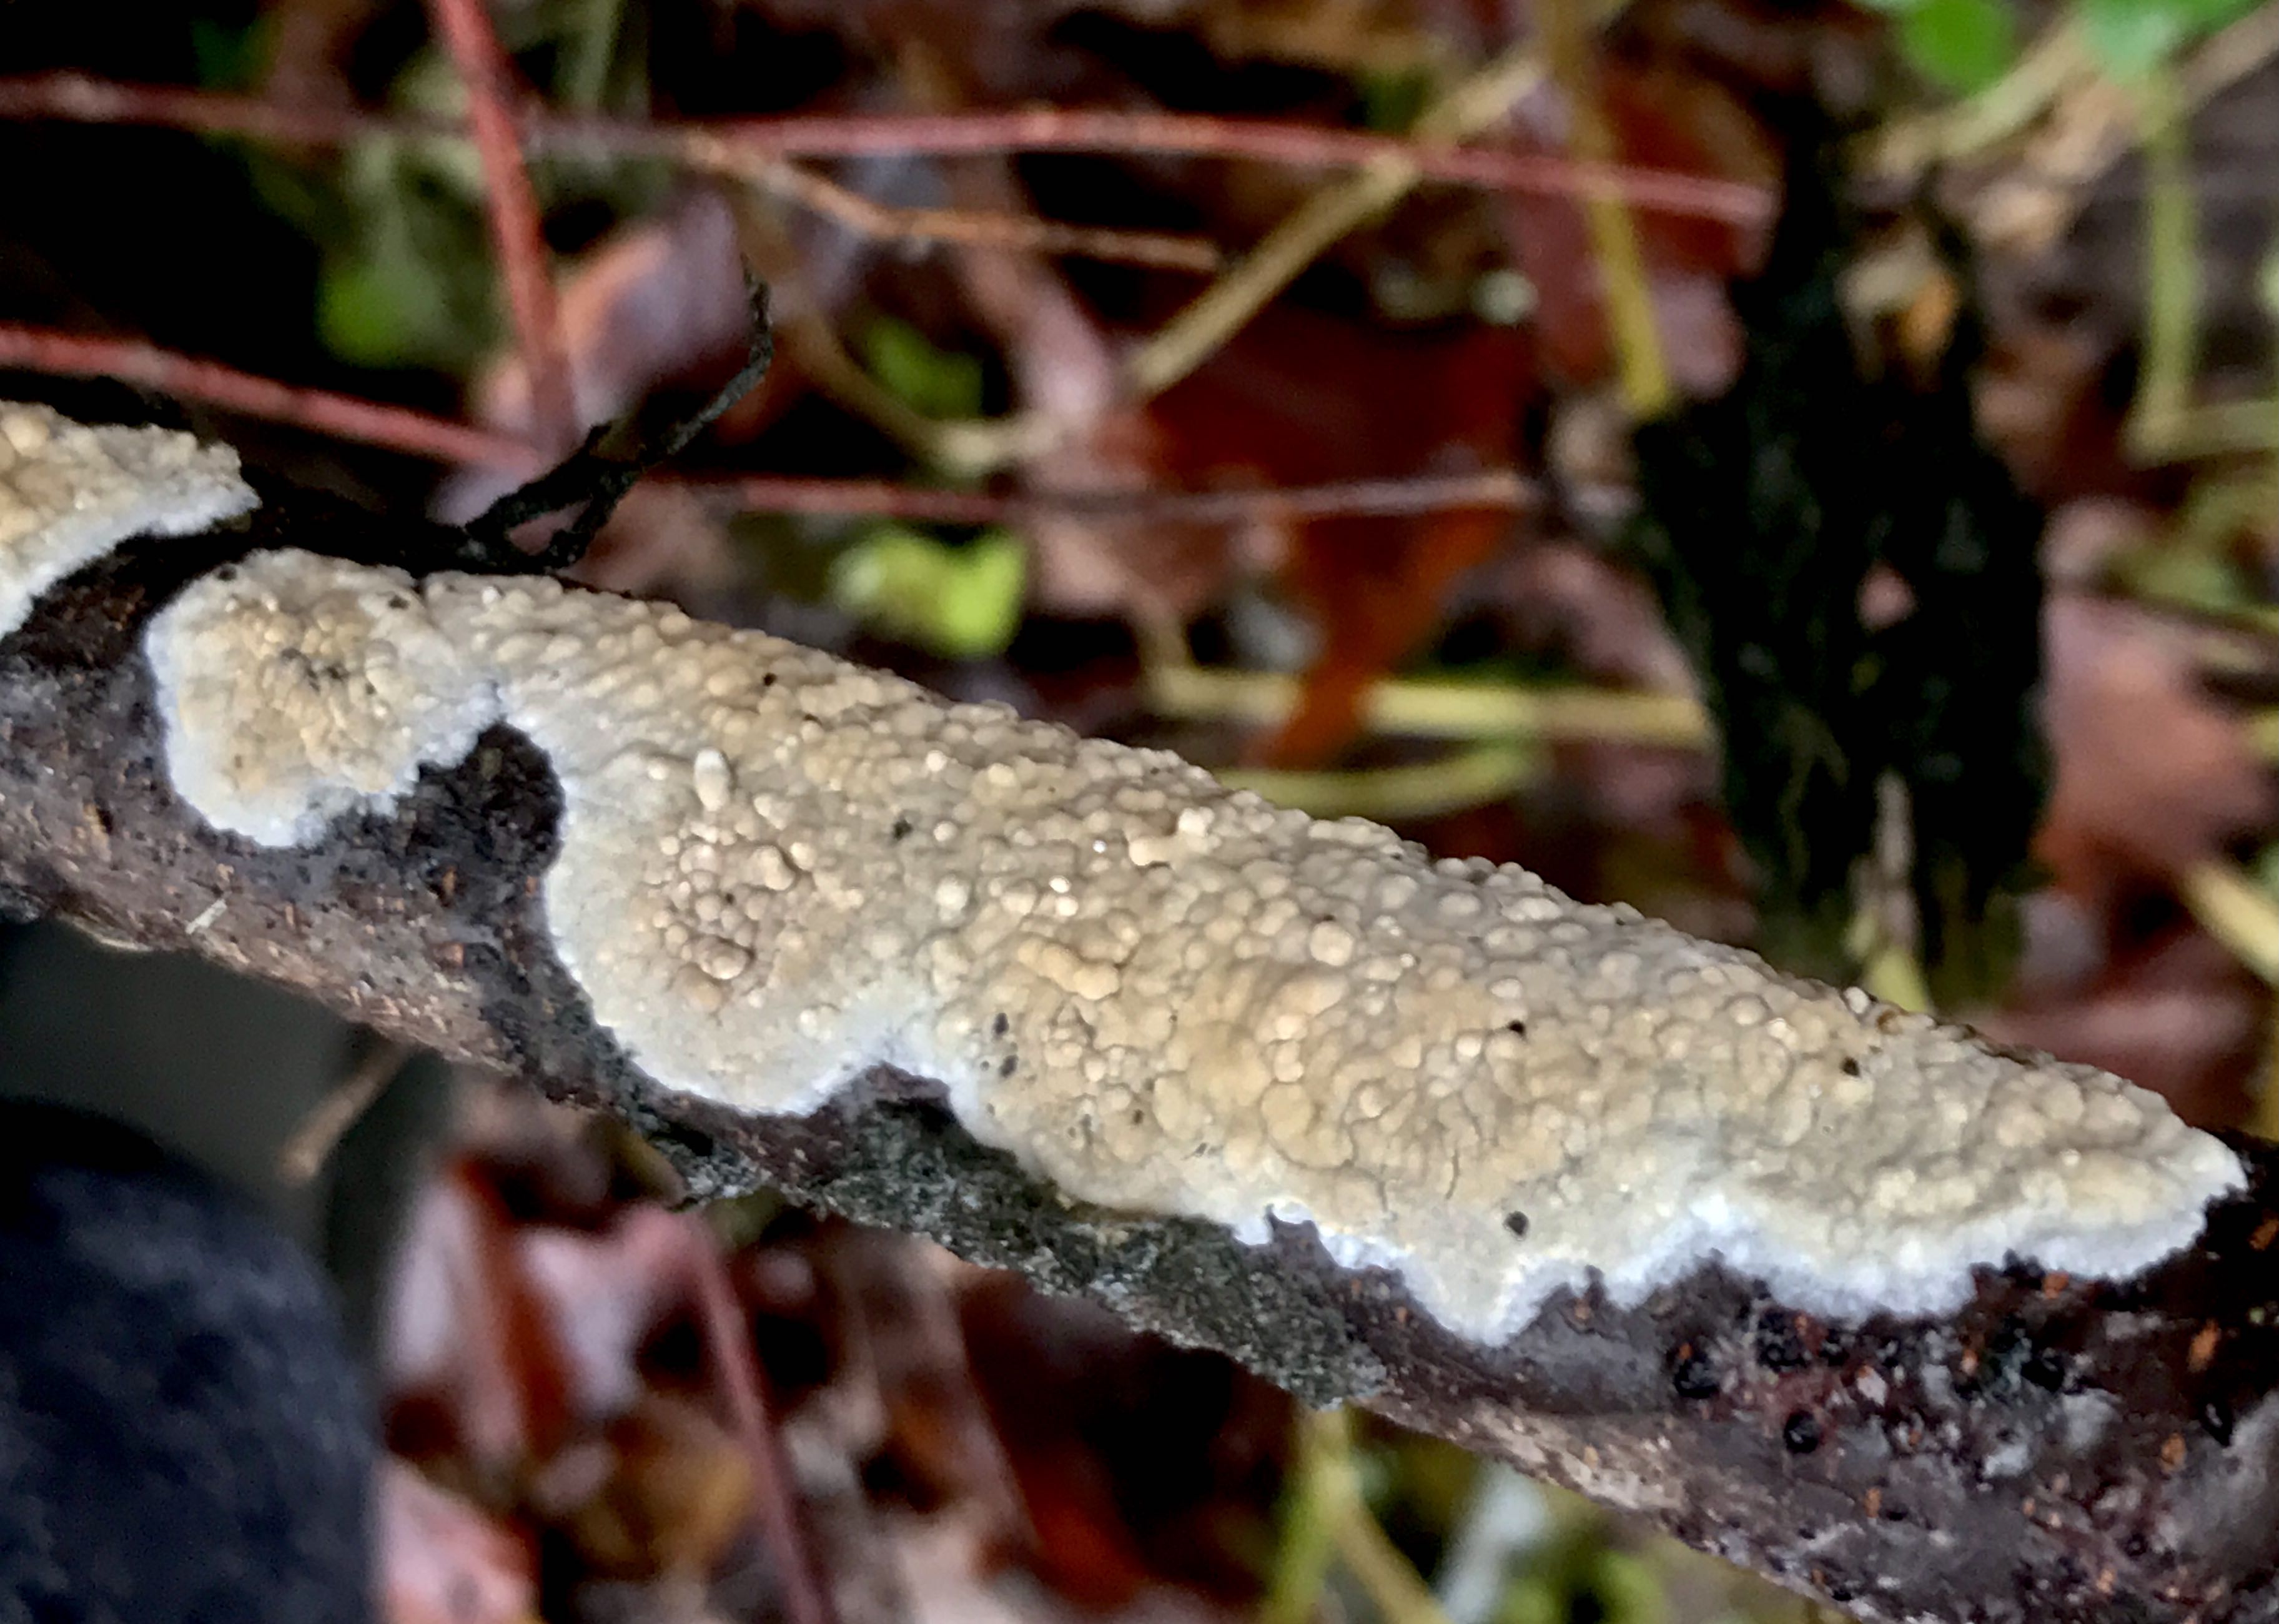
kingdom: Fungi
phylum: Basidiomycota
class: Agaricomycetes
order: Agaricales
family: Physalacriaceae
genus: Cylindrobasidium
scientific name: Cylindrobasidium evolvens
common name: sprækkehinde
